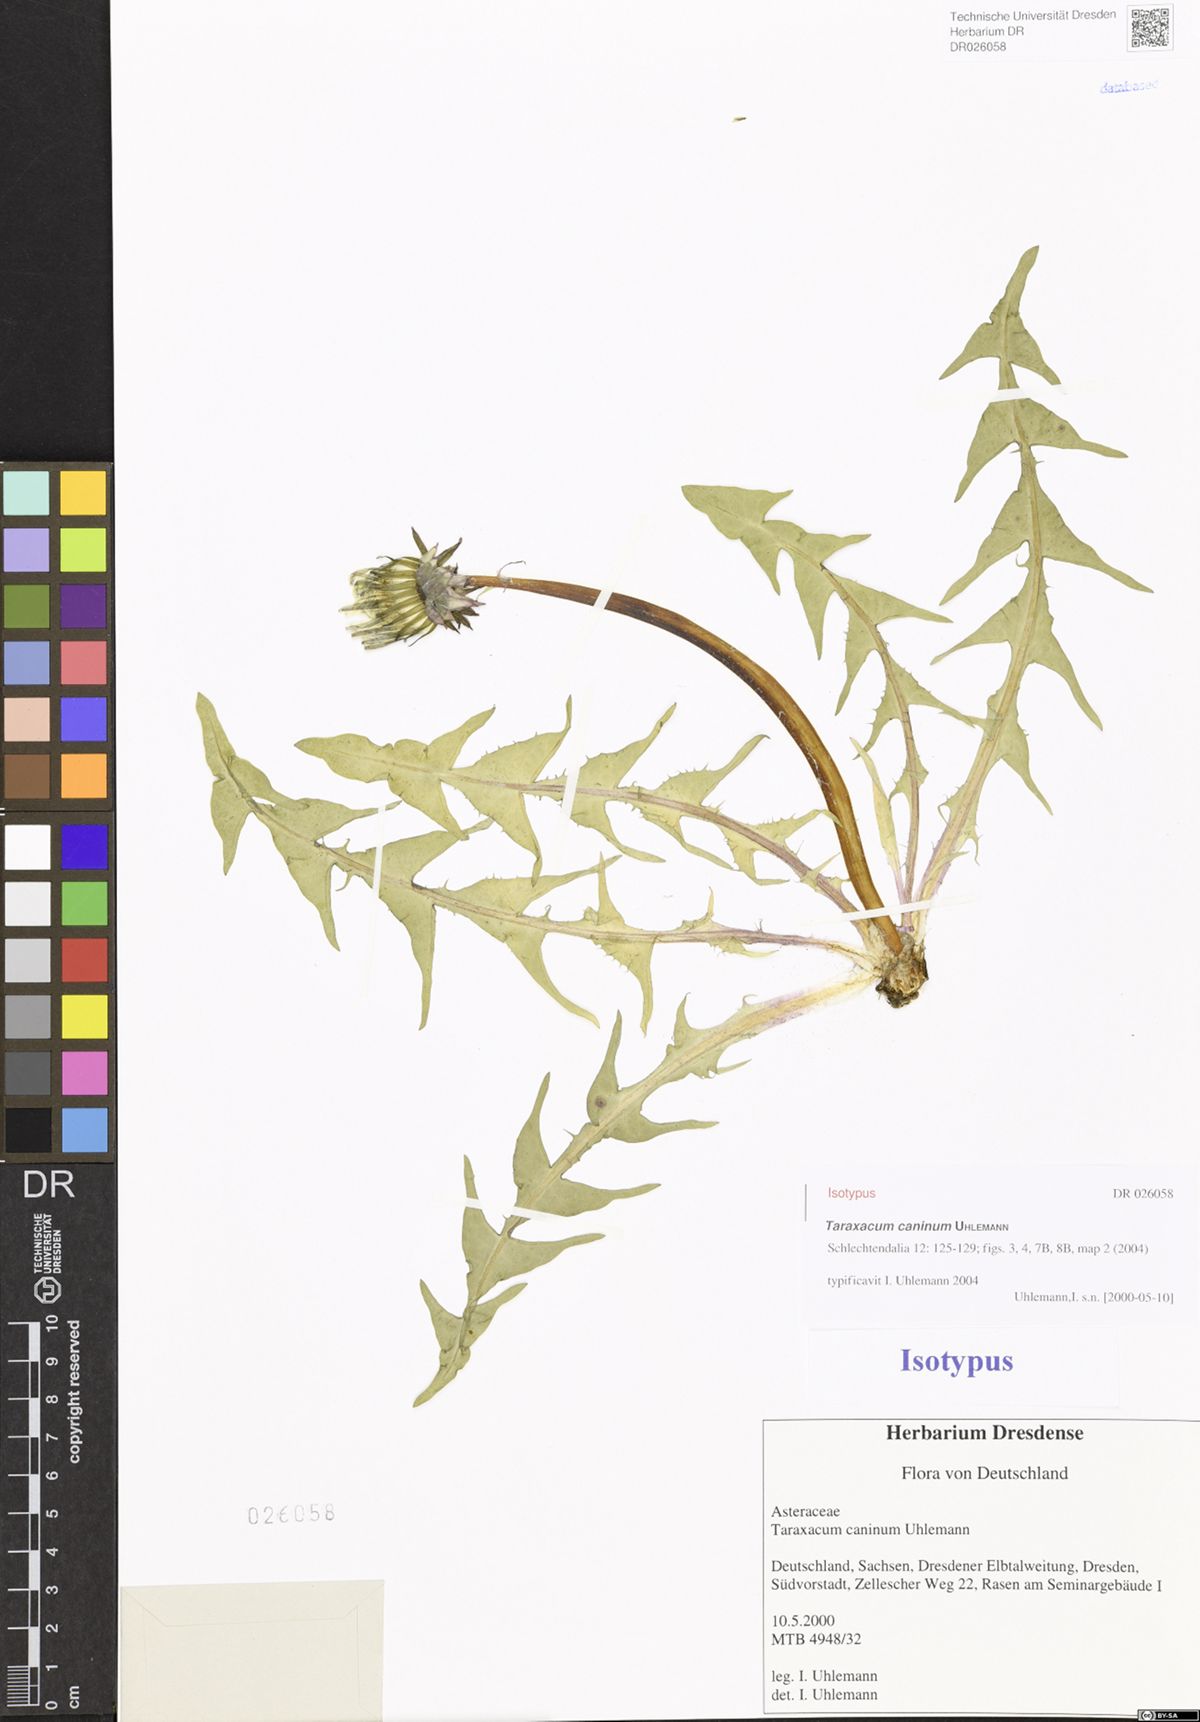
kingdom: Plantae
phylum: Tracheophyta
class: Magnoliopsida
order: Asterales
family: Asteraceae
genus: Taraxacum
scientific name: Taraxacum caninum
